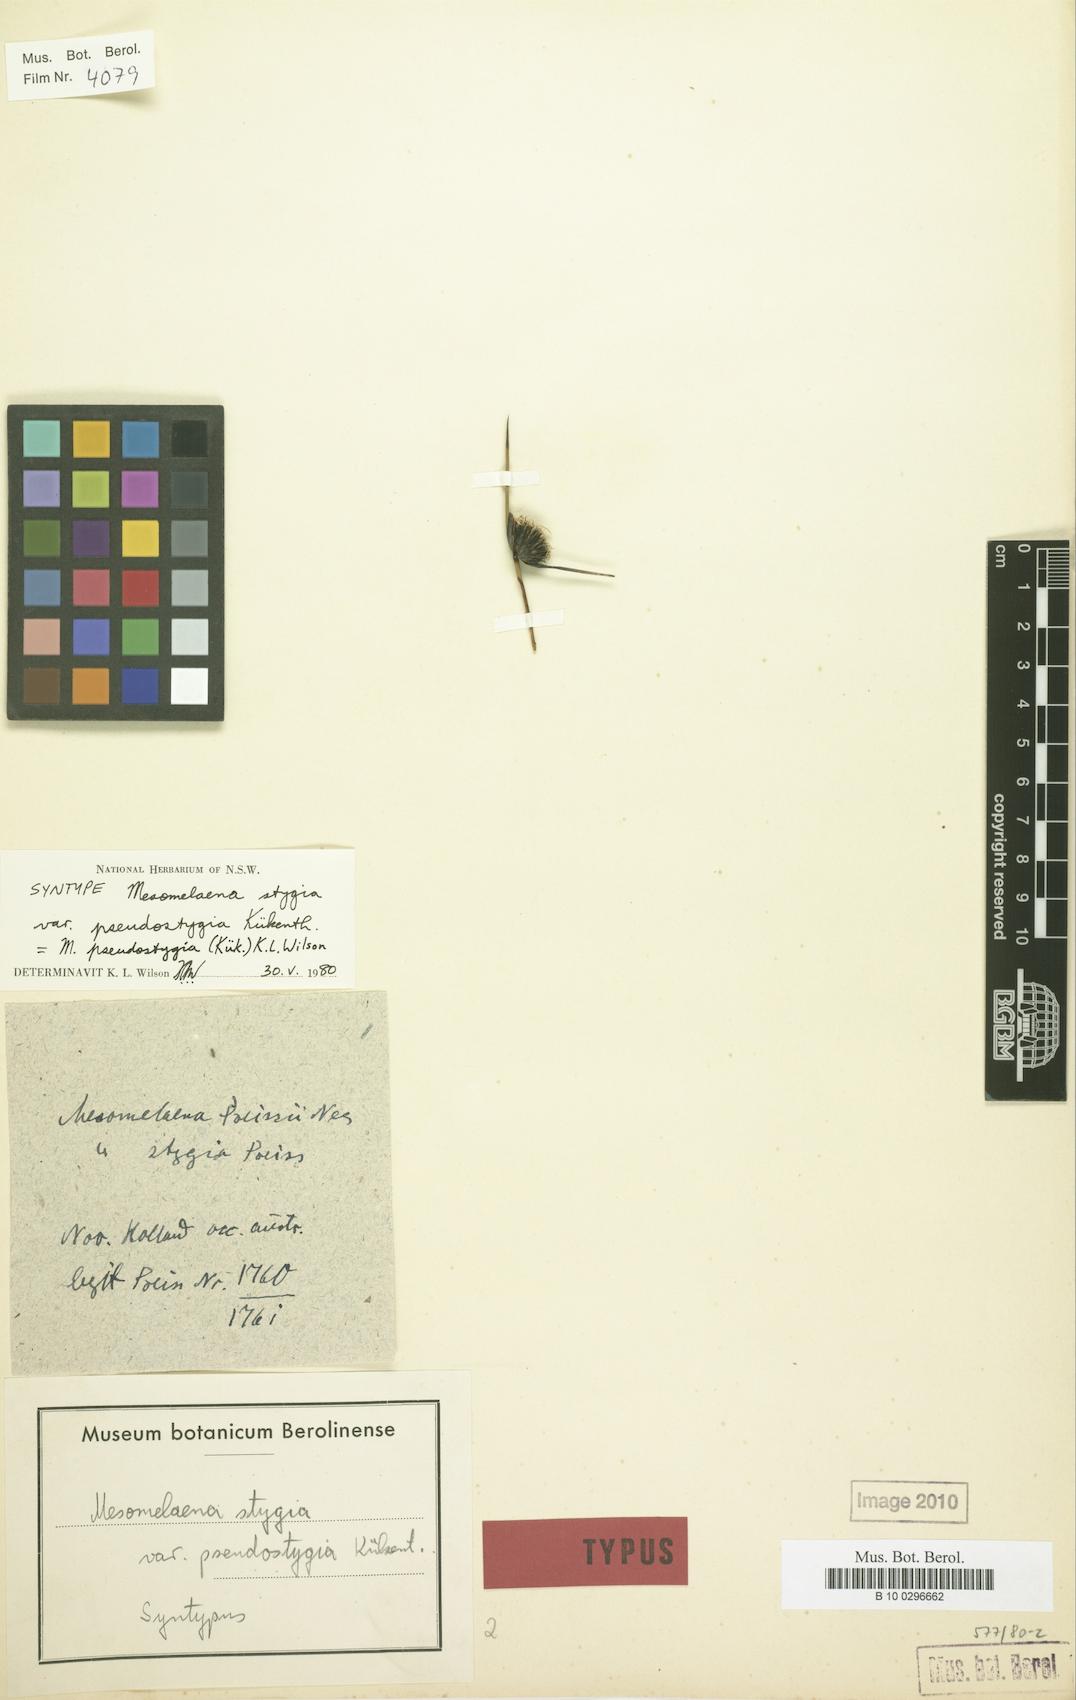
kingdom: Plantae
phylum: Tracheophyta
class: Liliopsida
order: Poales
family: Cyperaceae
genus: Mesomelaena
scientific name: Mesomelaena pseudostygia
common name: Semaphore sedge
